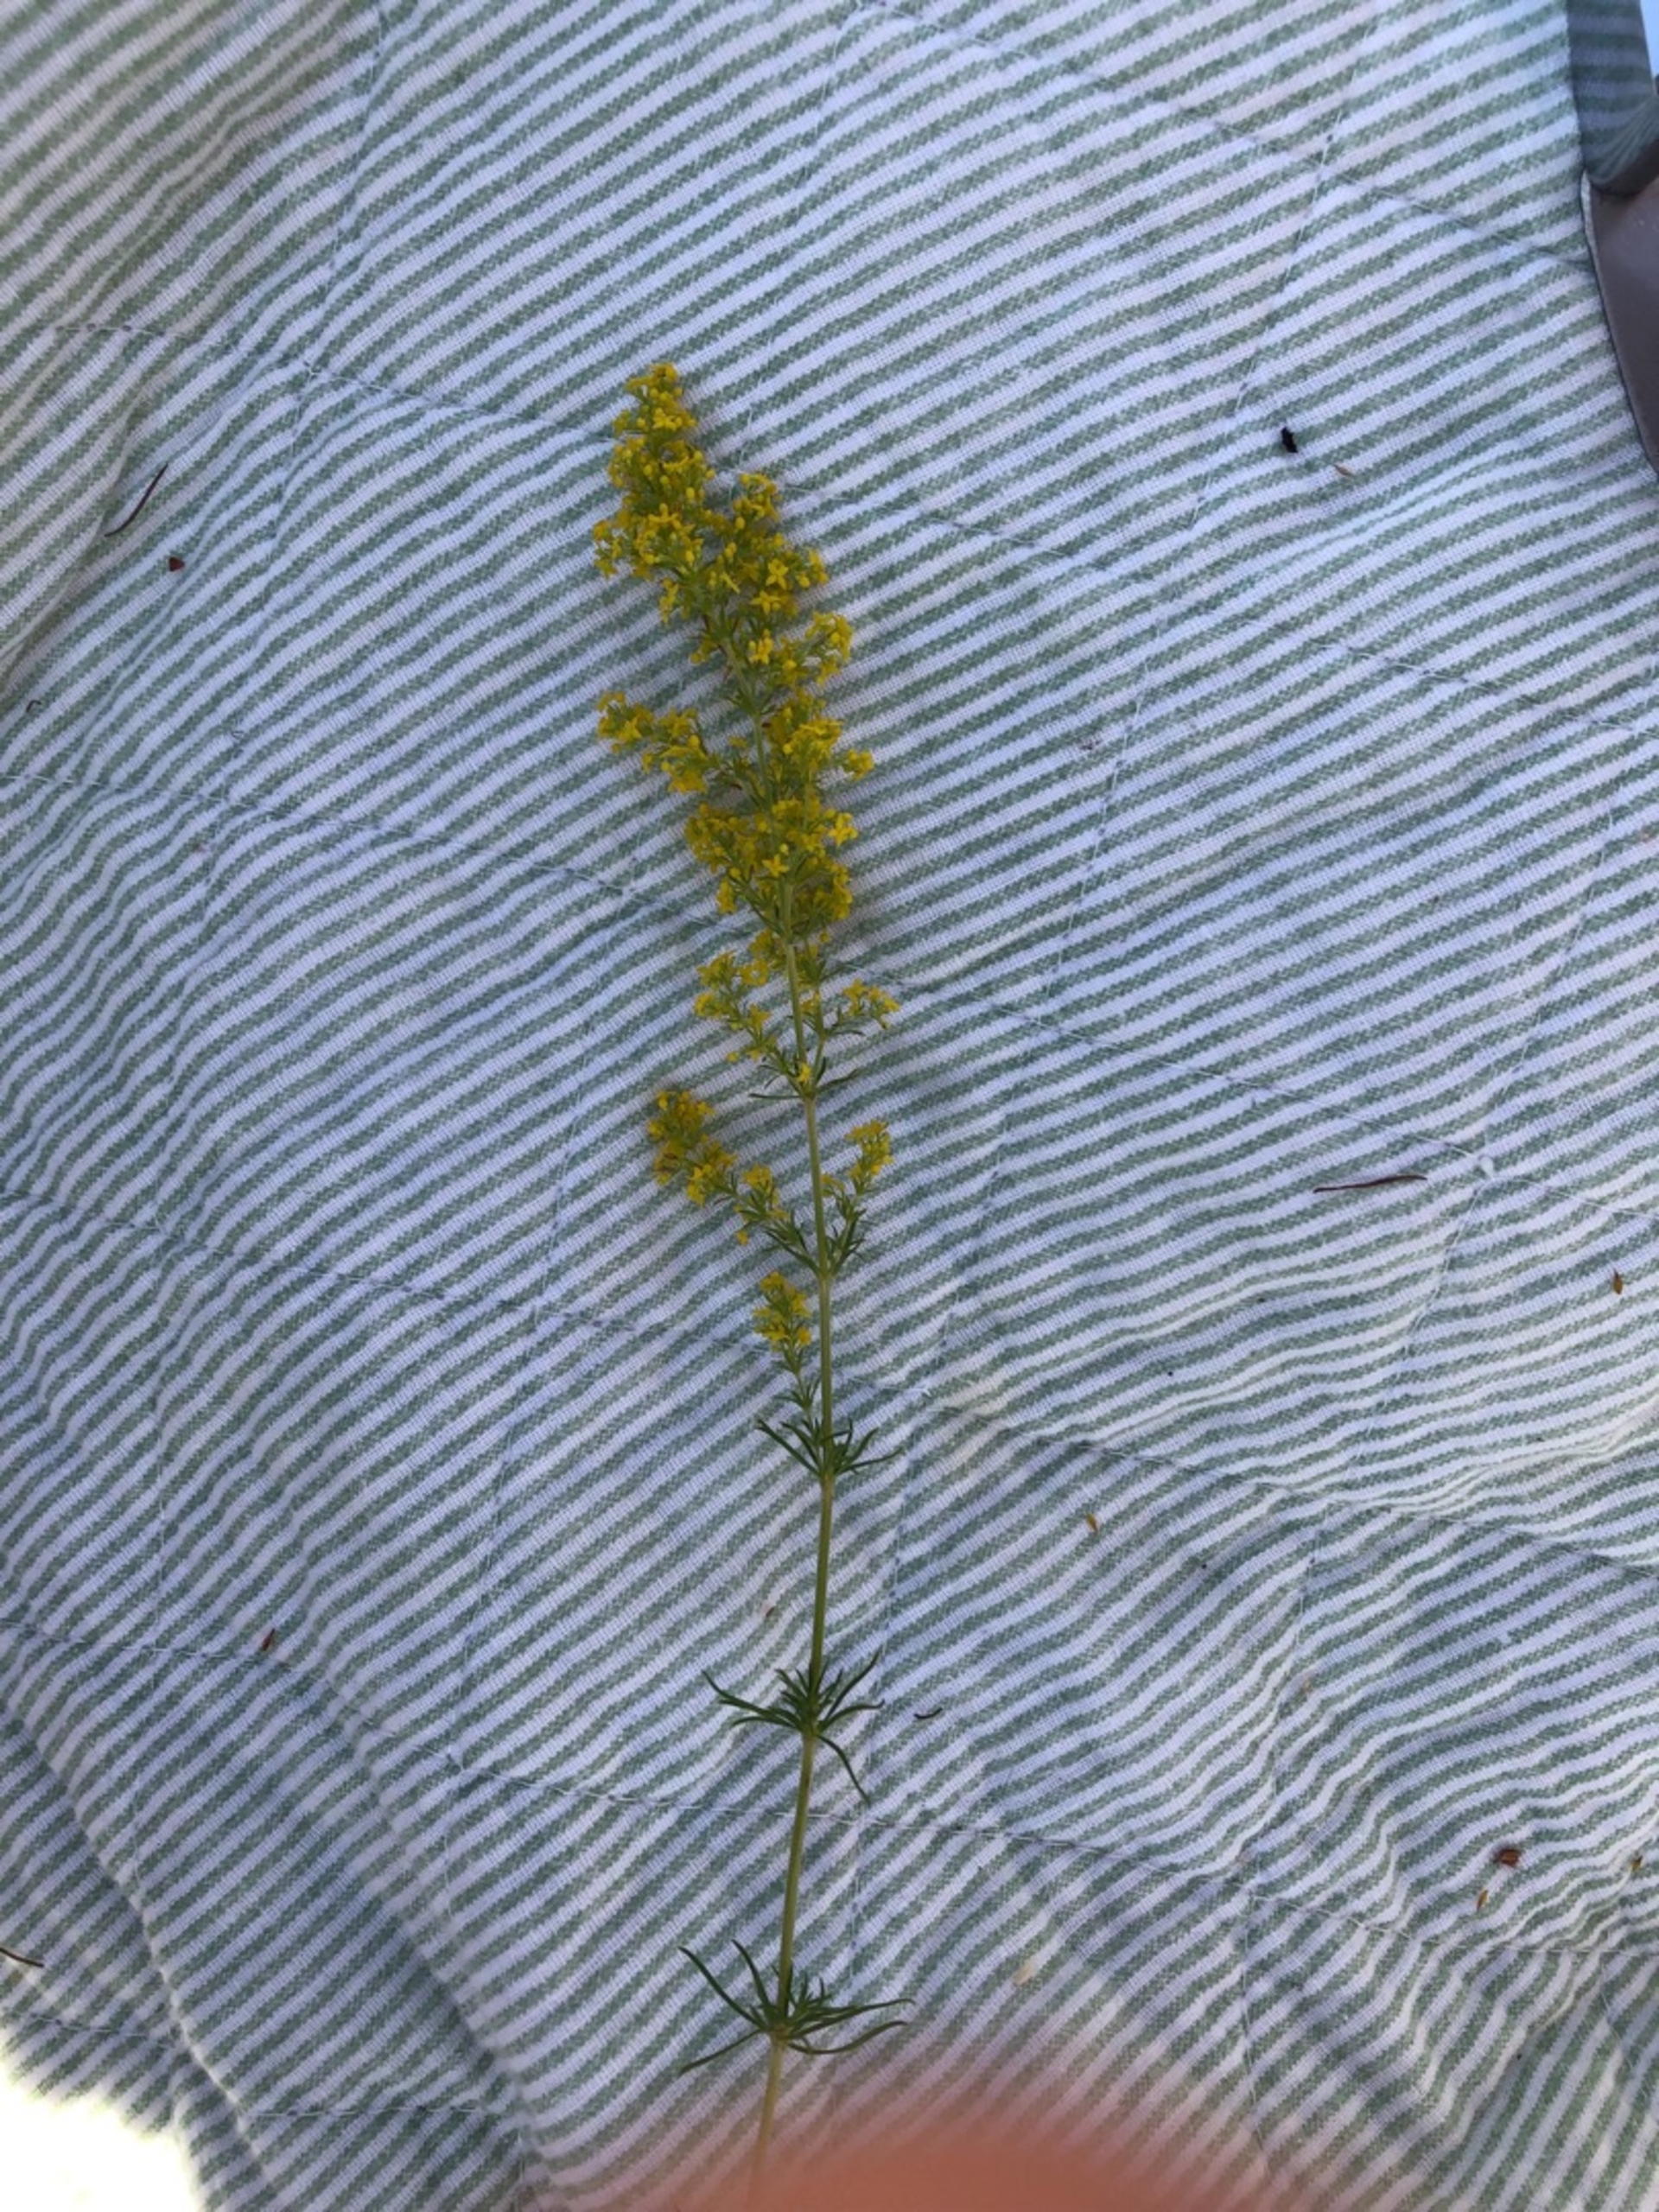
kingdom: Plantae
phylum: Tracheophyta
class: Magnoliopsida
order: Gentianales
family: Rubiaceae
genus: Galium
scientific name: Galium verum
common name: Gul snerre
